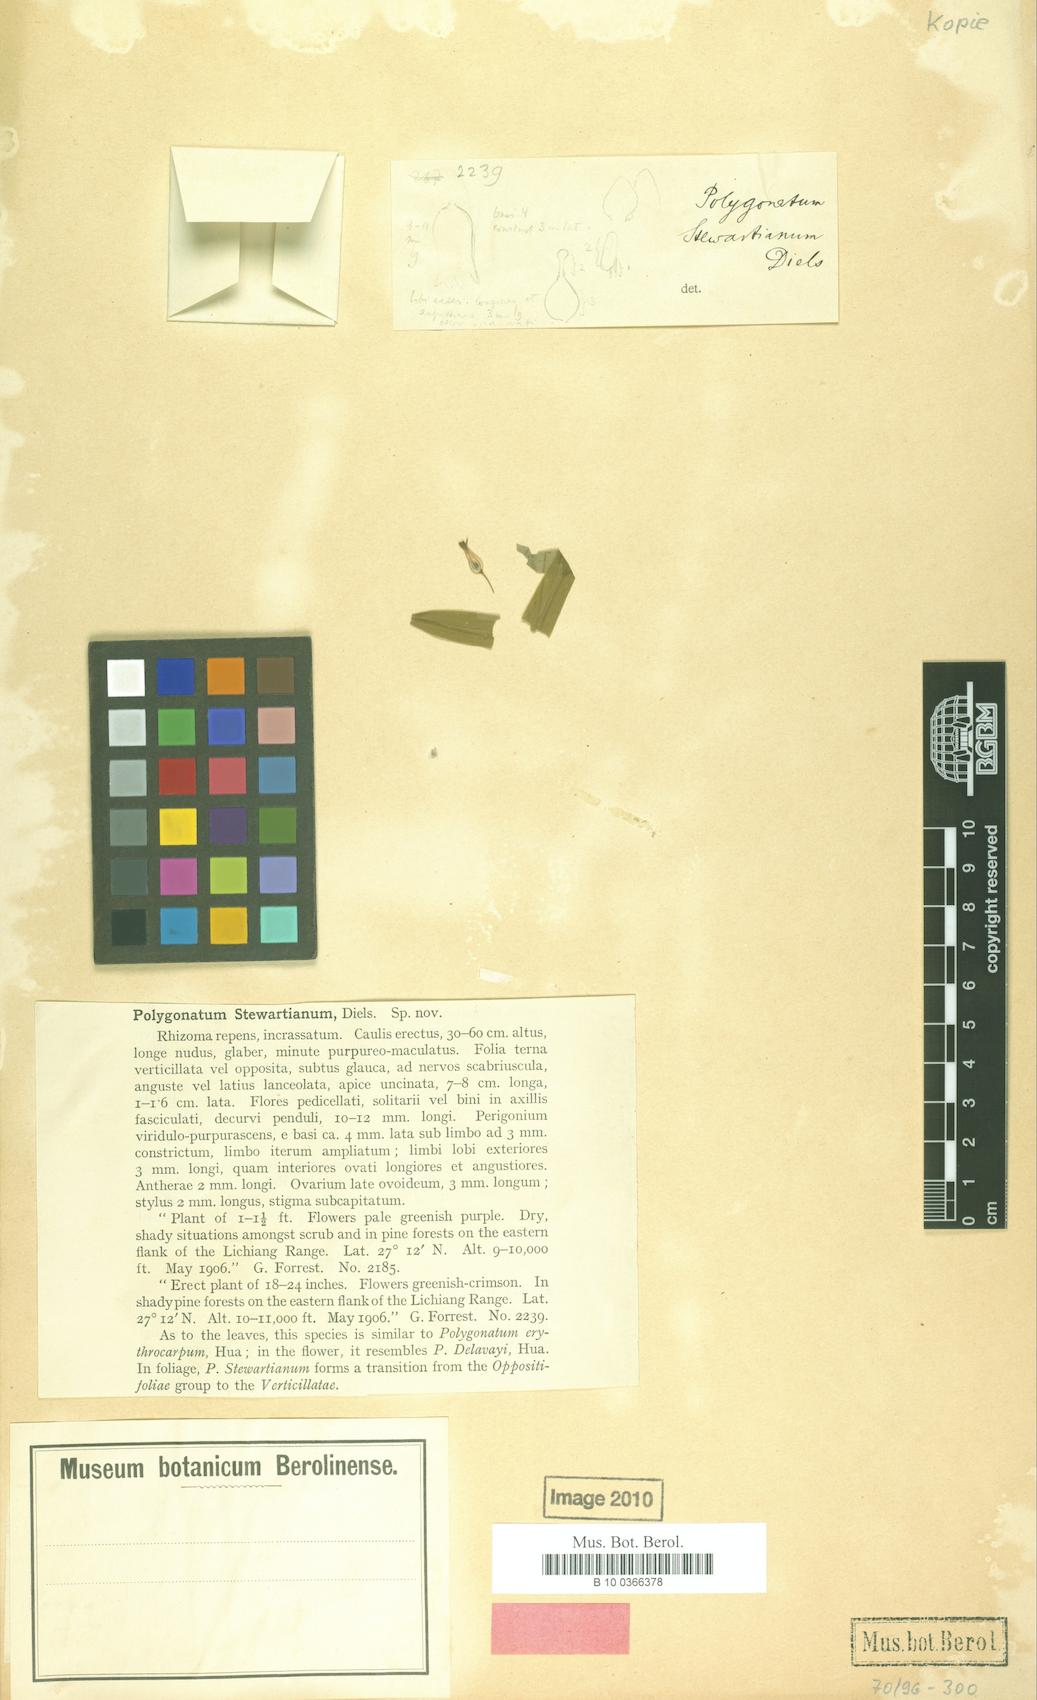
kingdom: Plantae
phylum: Tracheophyta
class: Liliopsida
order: Asparagales
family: Asparagaceae
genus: Polygonatum
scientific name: Polygonatum stewartianum
